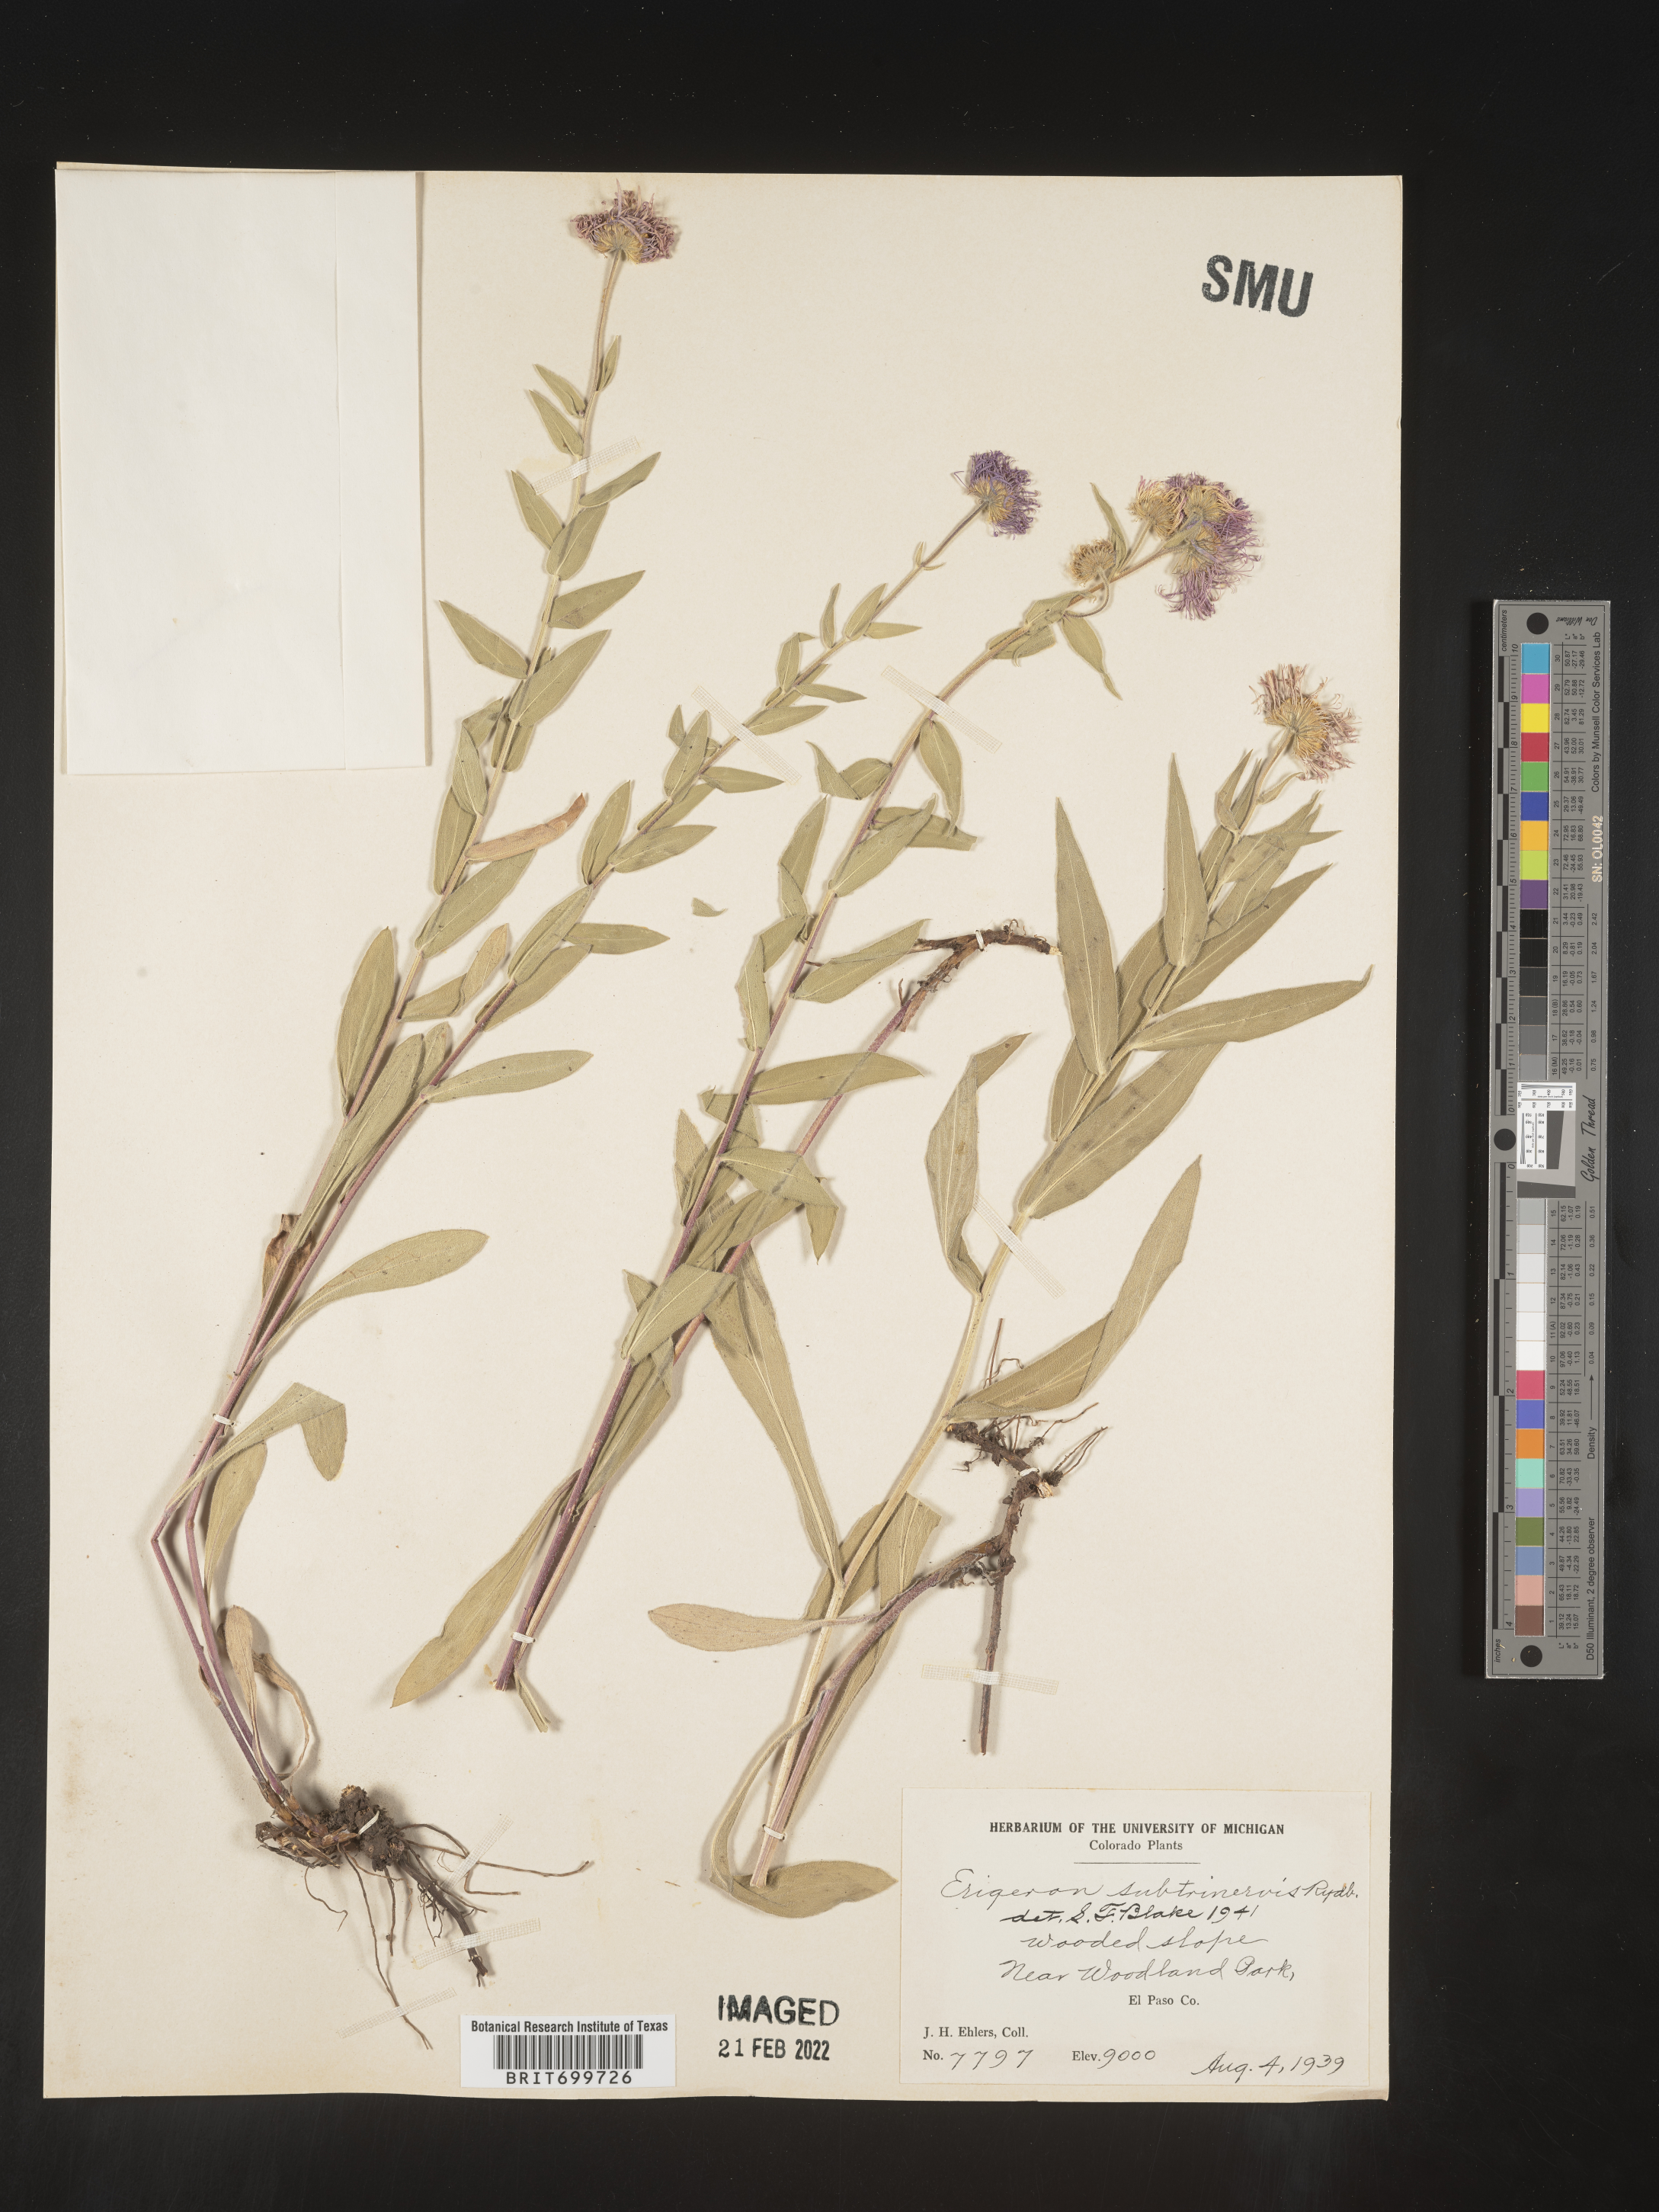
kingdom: Plantae
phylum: Tracheophyta
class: Magnoliopsida
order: Asterales
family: Asteraceae
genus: Erigeron
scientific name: Erigeron subtrinervis
